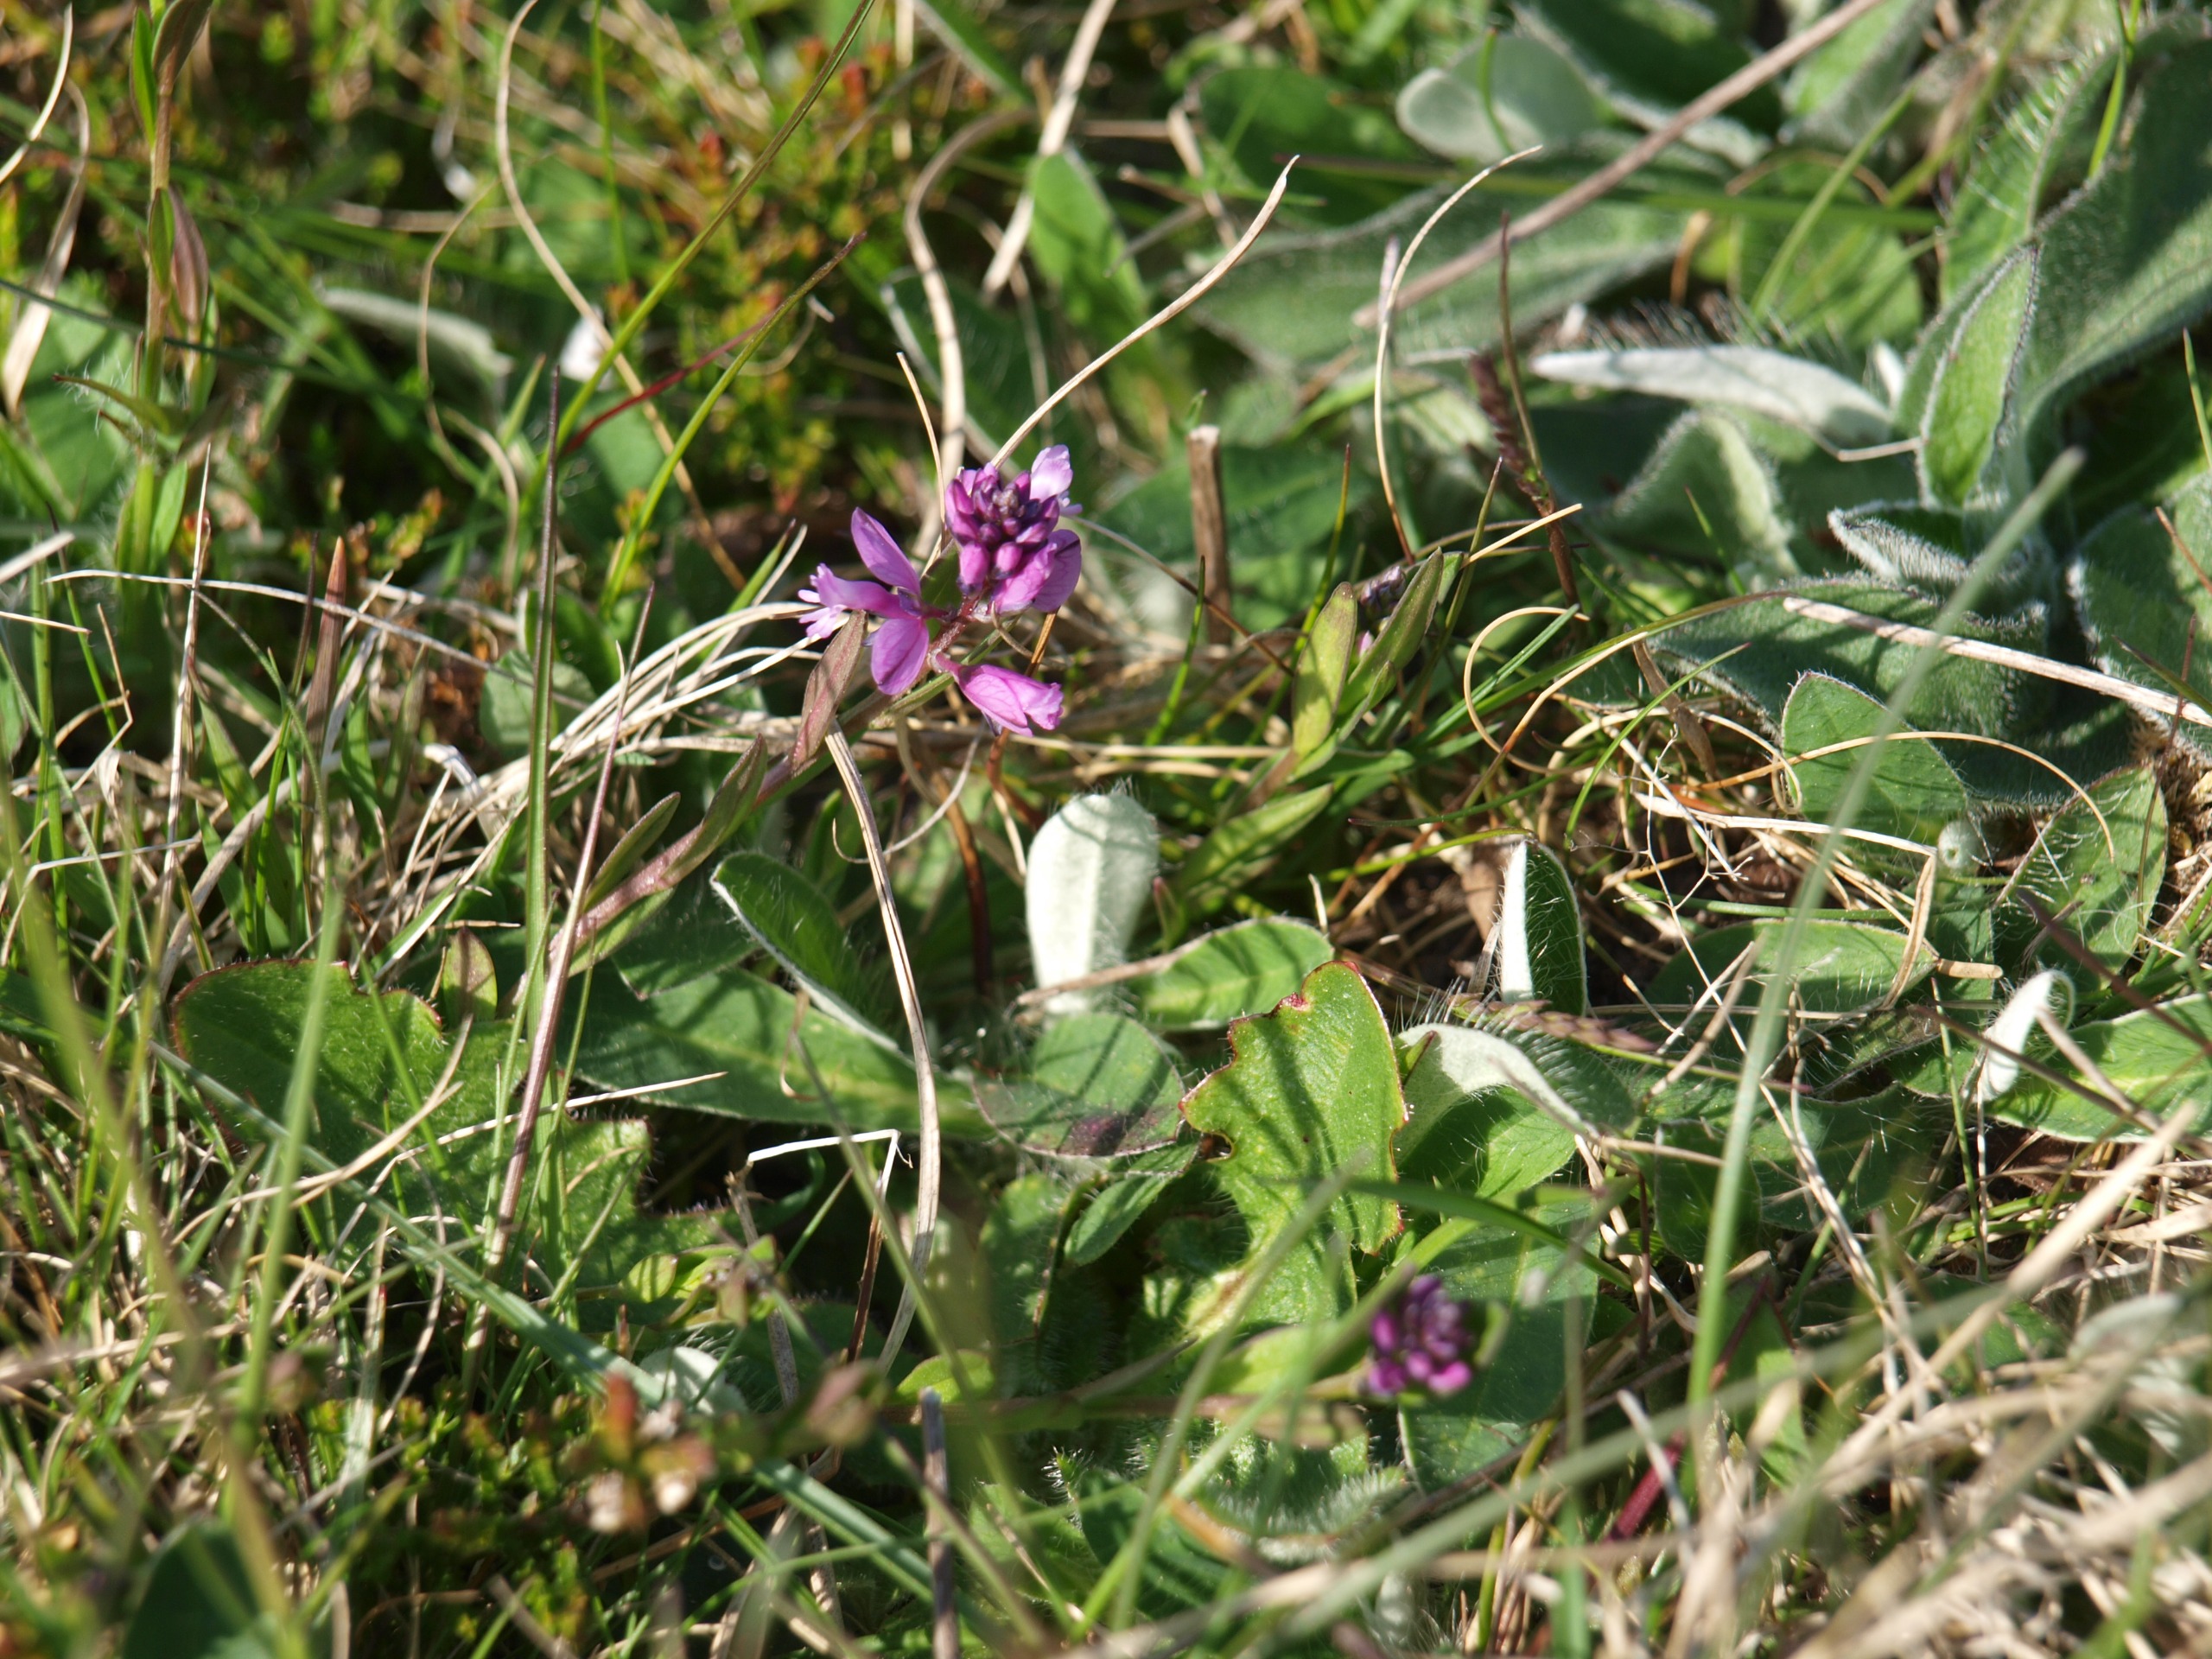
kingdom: Plantae
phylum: Tracheophyta
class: Magnoliopsida
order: Fabales
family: Polygalaceae
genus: Polygala
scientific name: Polygala vulgaris
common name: Almindelig mælkeurt
